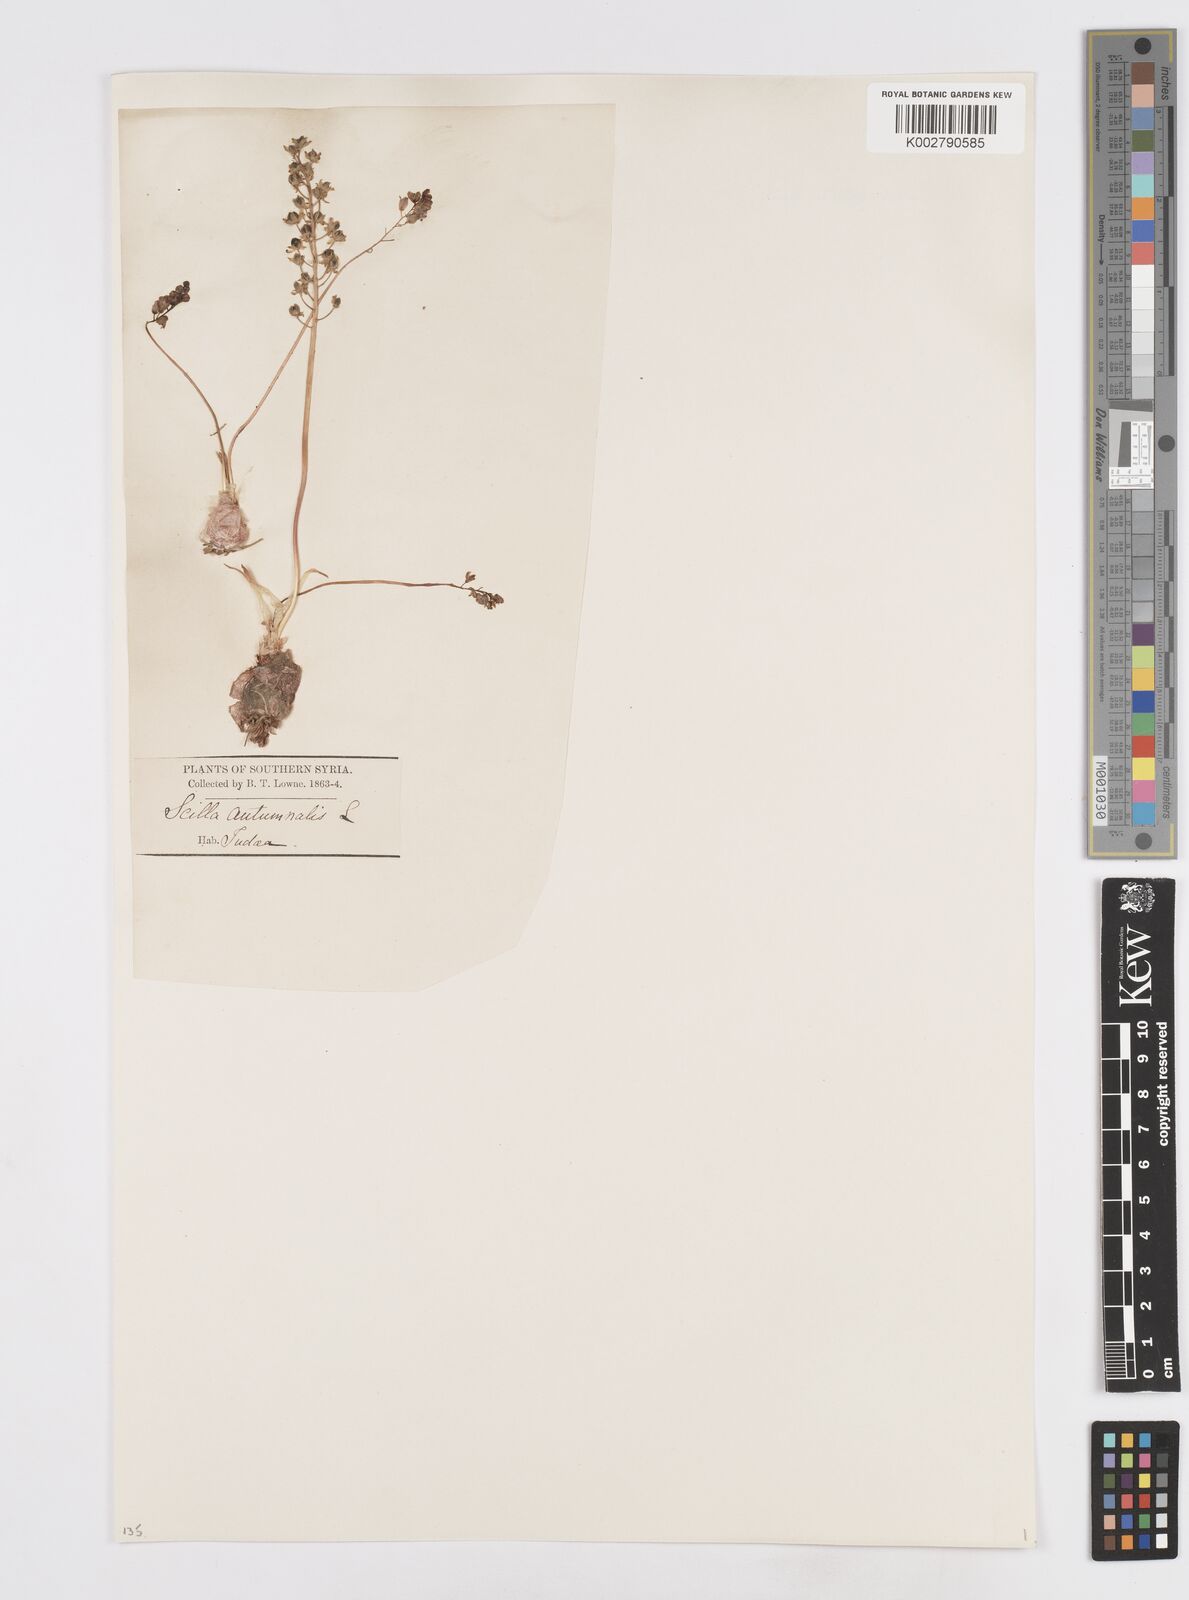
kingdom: Plantae
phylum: Tracheophyta
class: Liliopsida
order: Asparagales
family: Asparagaceae
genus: Prospero
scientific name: Prospero autumnale
